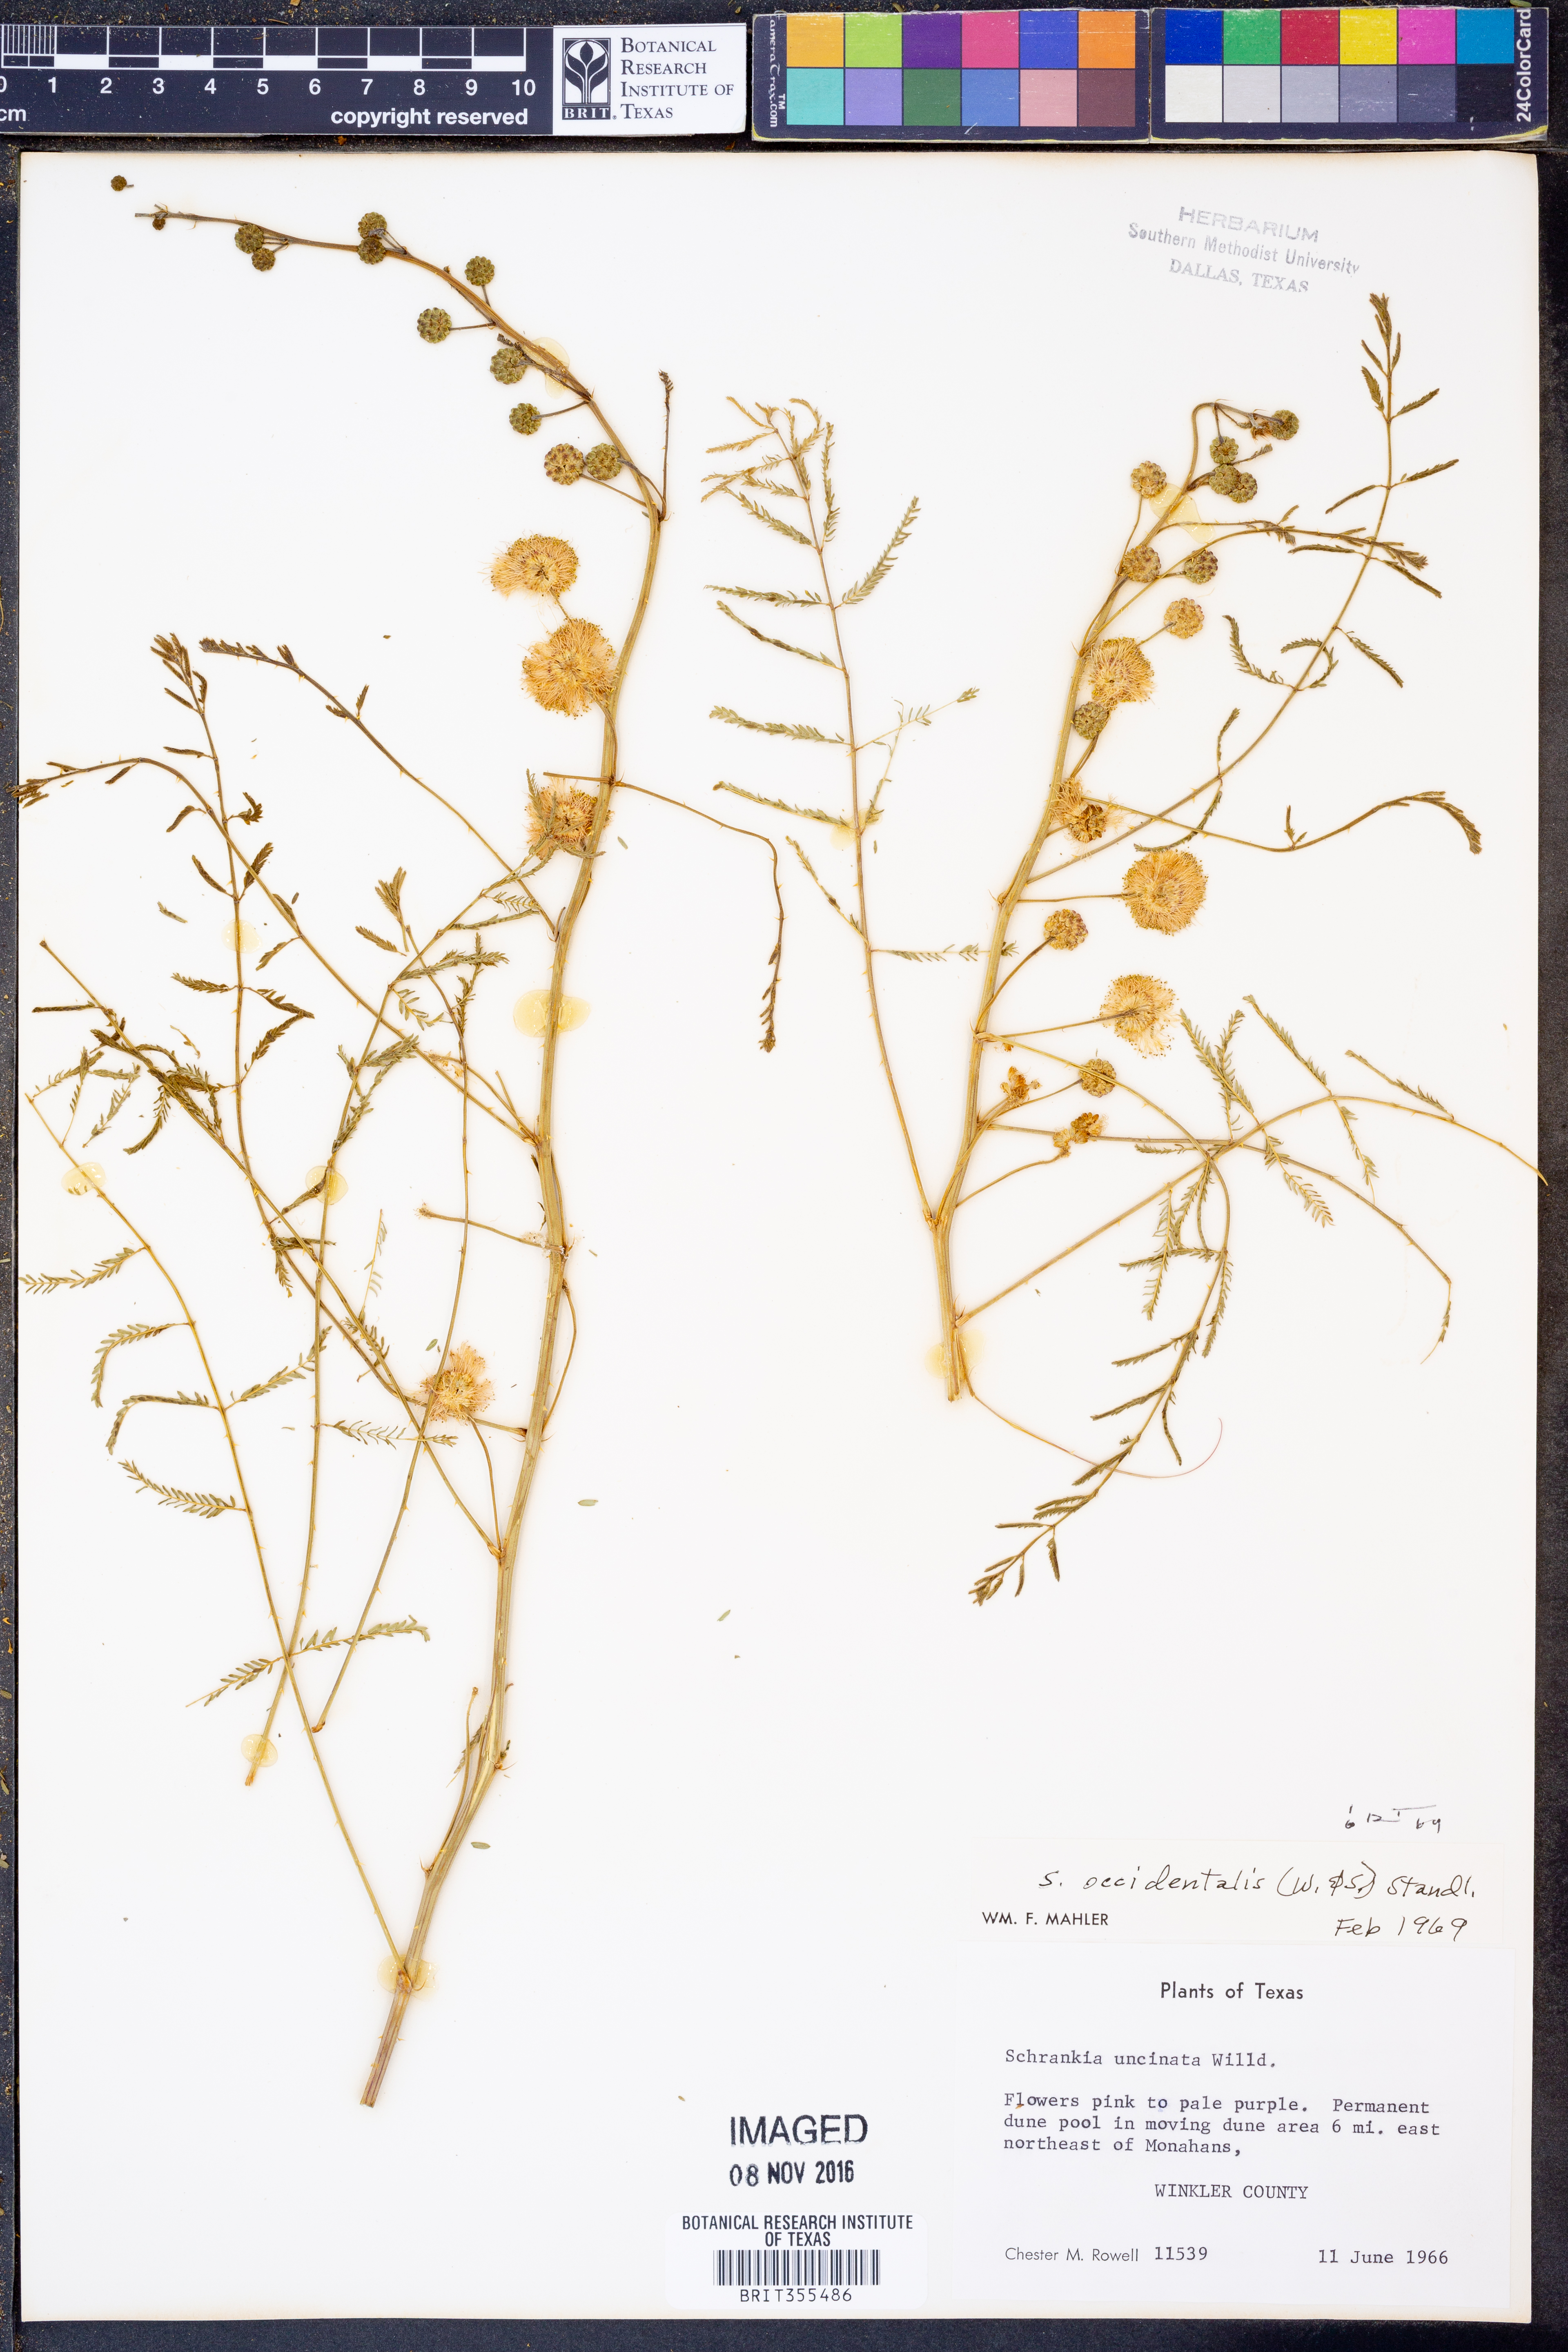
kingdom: Plantae
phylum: Tracheophyta
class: Magnoliopsida
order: Fabales
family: Fabaceae
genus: Mimosa
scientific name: Mimosa quadrivalvis
